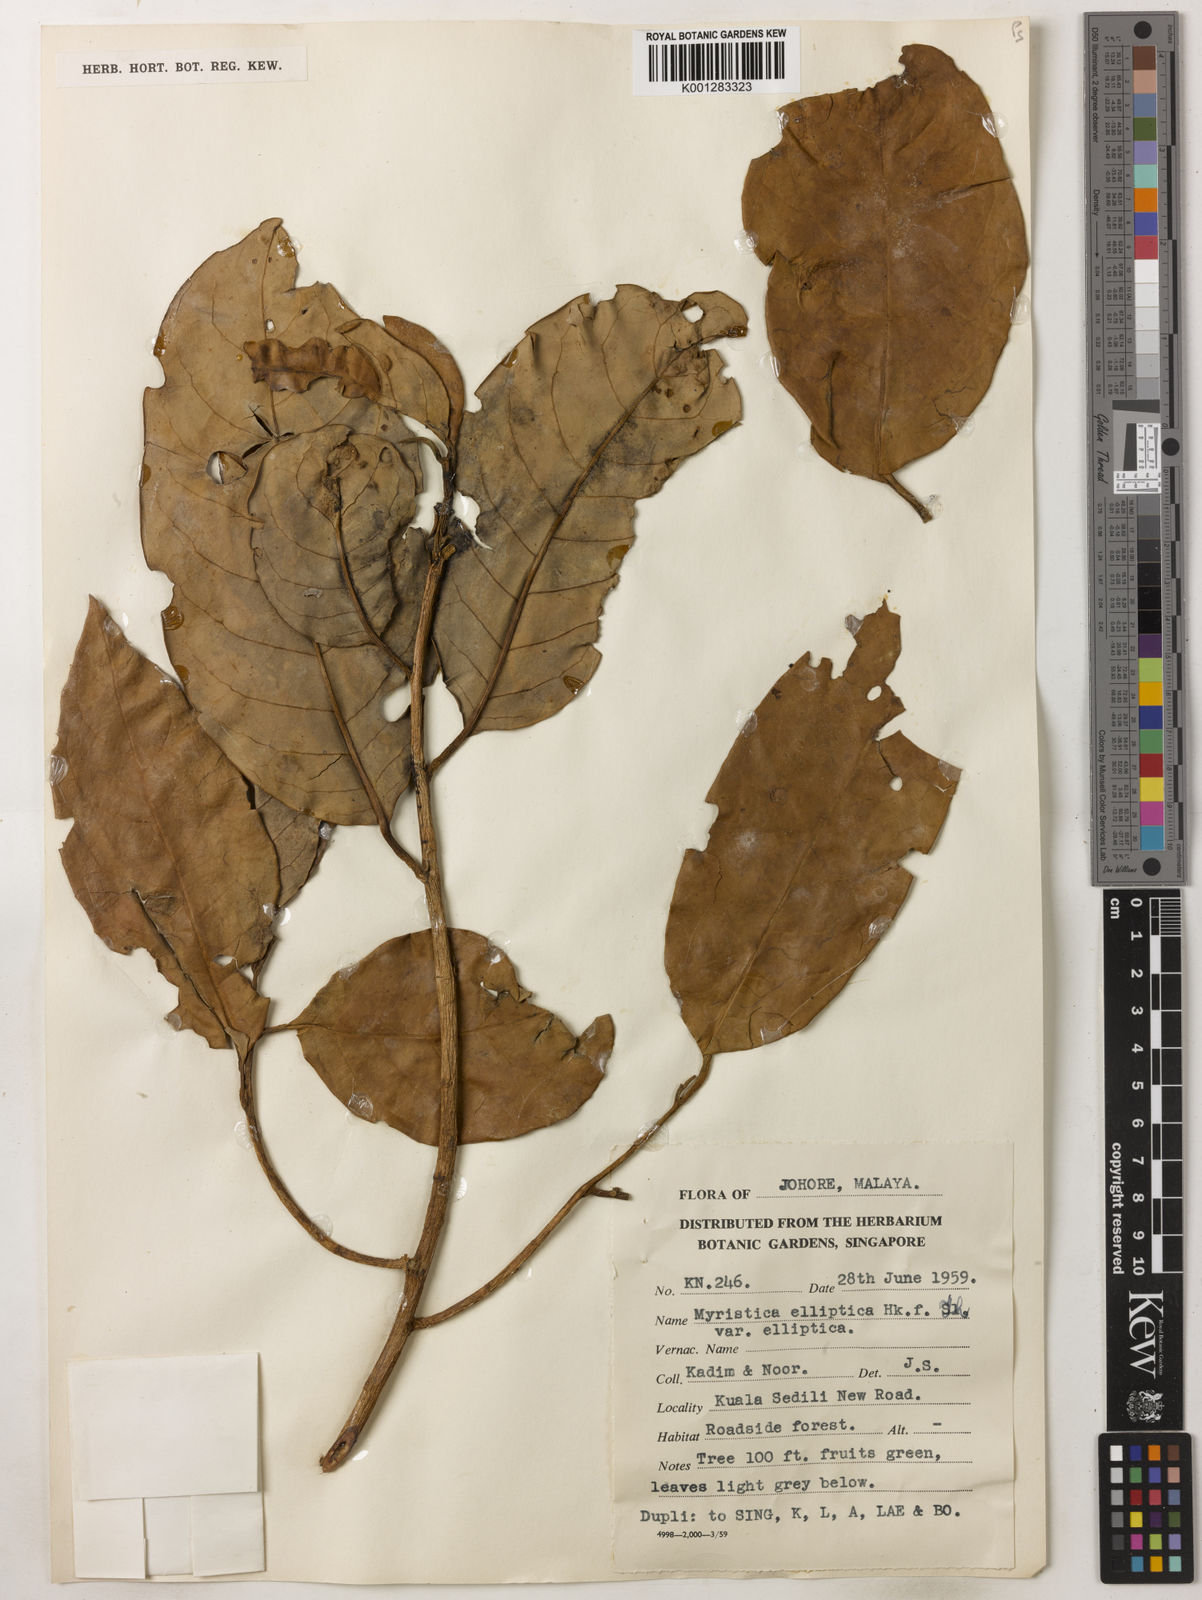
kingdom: Plantae
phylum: Tracheophyta
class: Magnoliopsida
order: Magnoliales
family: Myristicaceae
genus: Myristica
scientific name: Myristica elliptica
